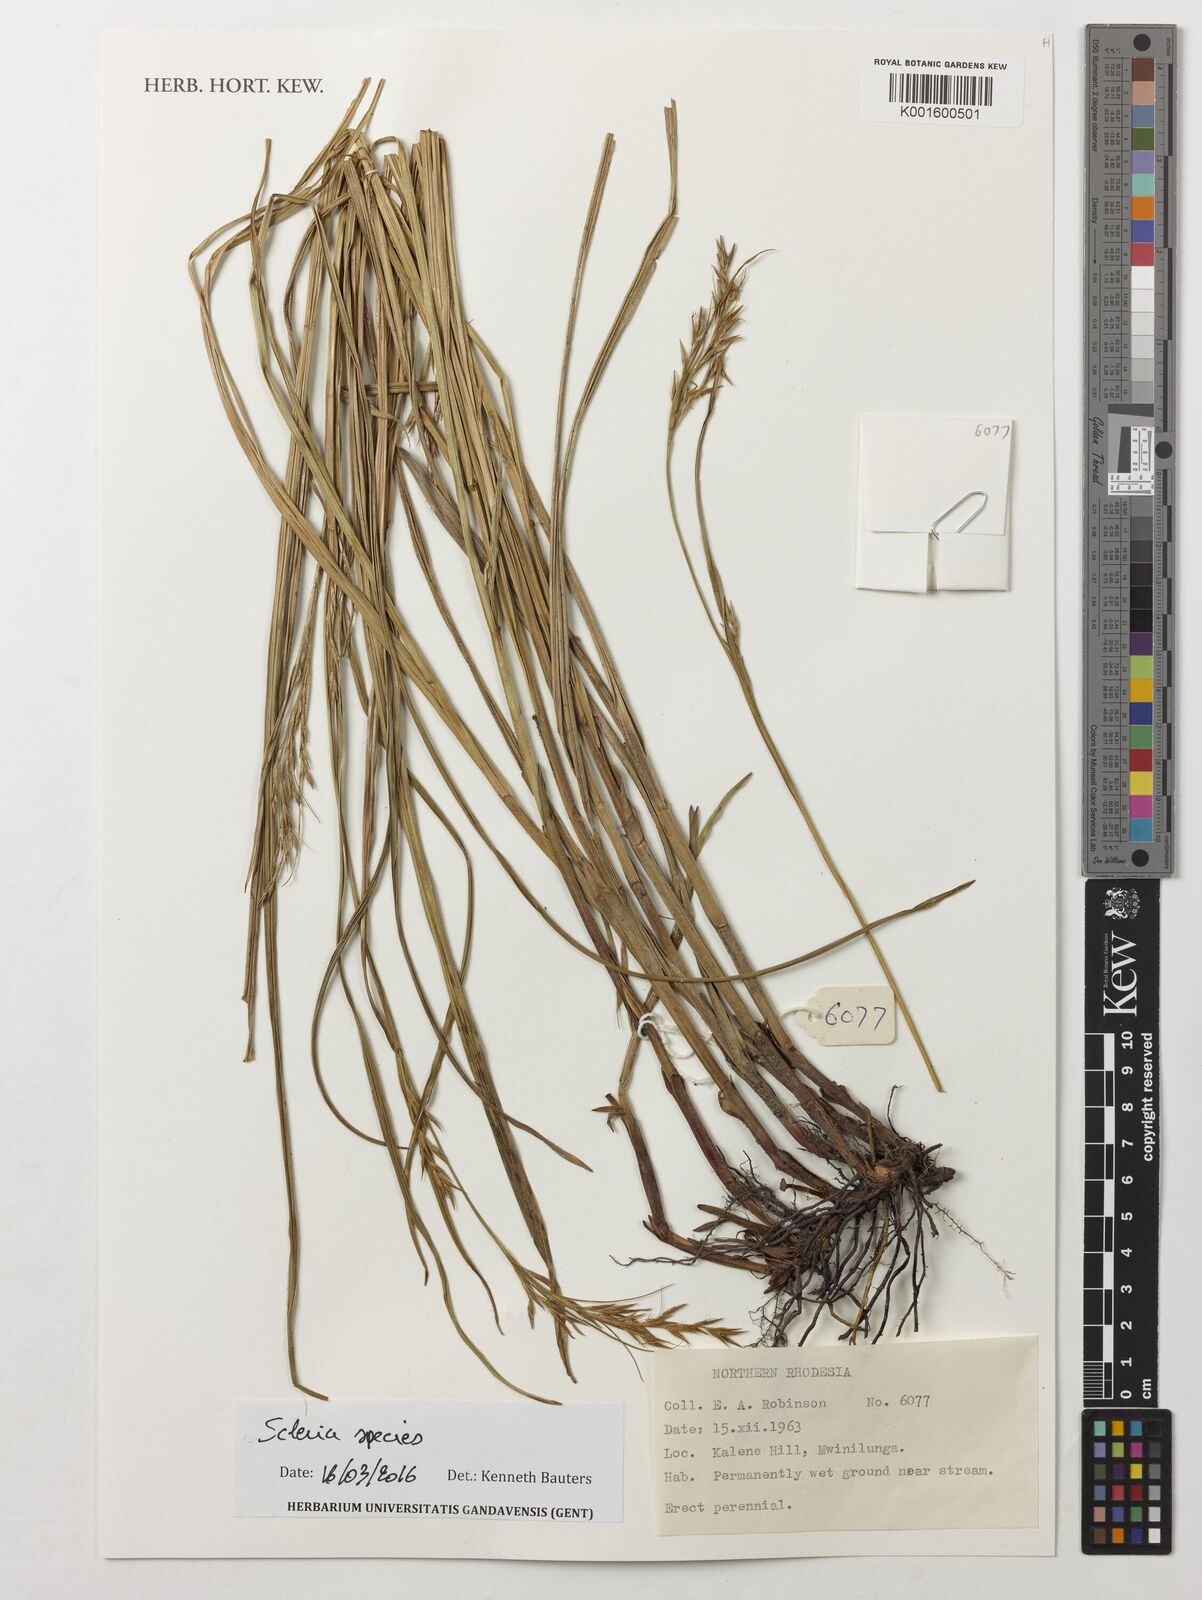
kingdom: Plantae
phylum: Tracheophyta
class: Liliopsida
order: Poales
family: Cyperaceae
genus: Scleria
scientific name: Scleria
